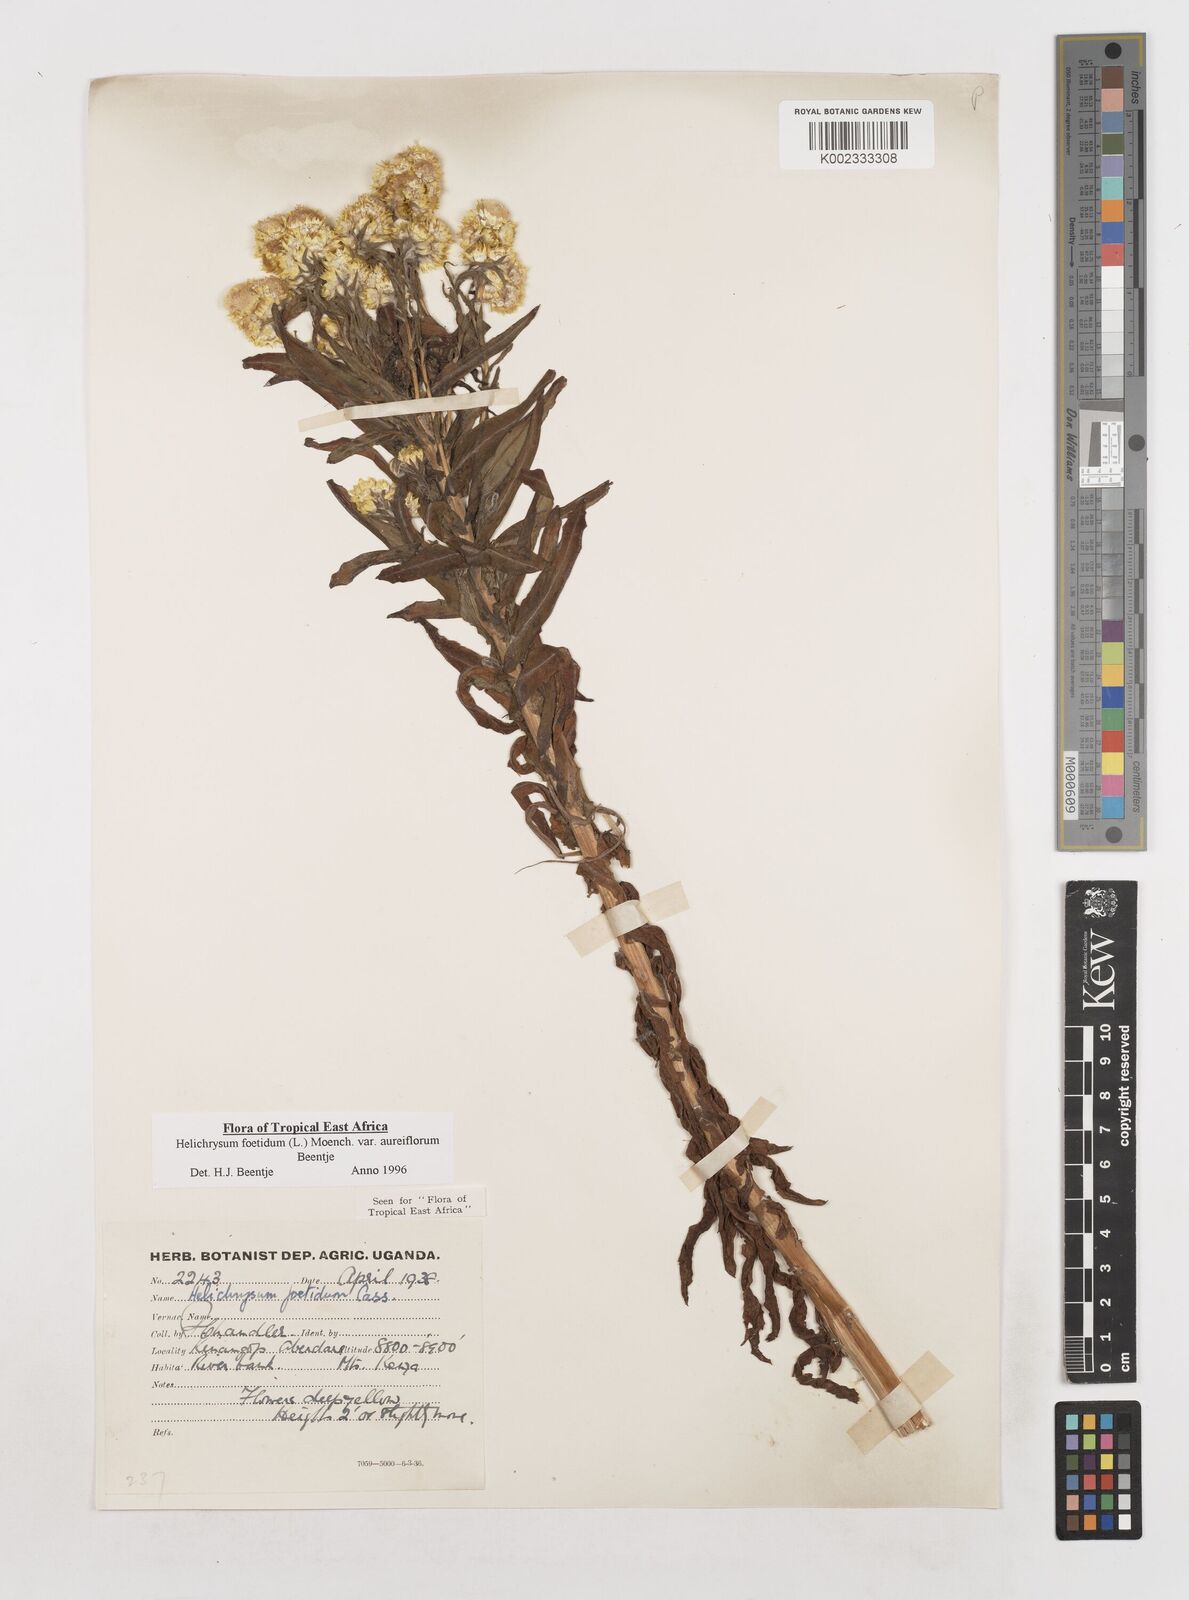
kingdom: Plantae
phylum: Tracheophyta
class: Magnoliopsida
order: Asterales
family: Asteraceae
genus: Helichrysum
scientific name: Helichrysum foetidum
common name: Stinking everlasting
